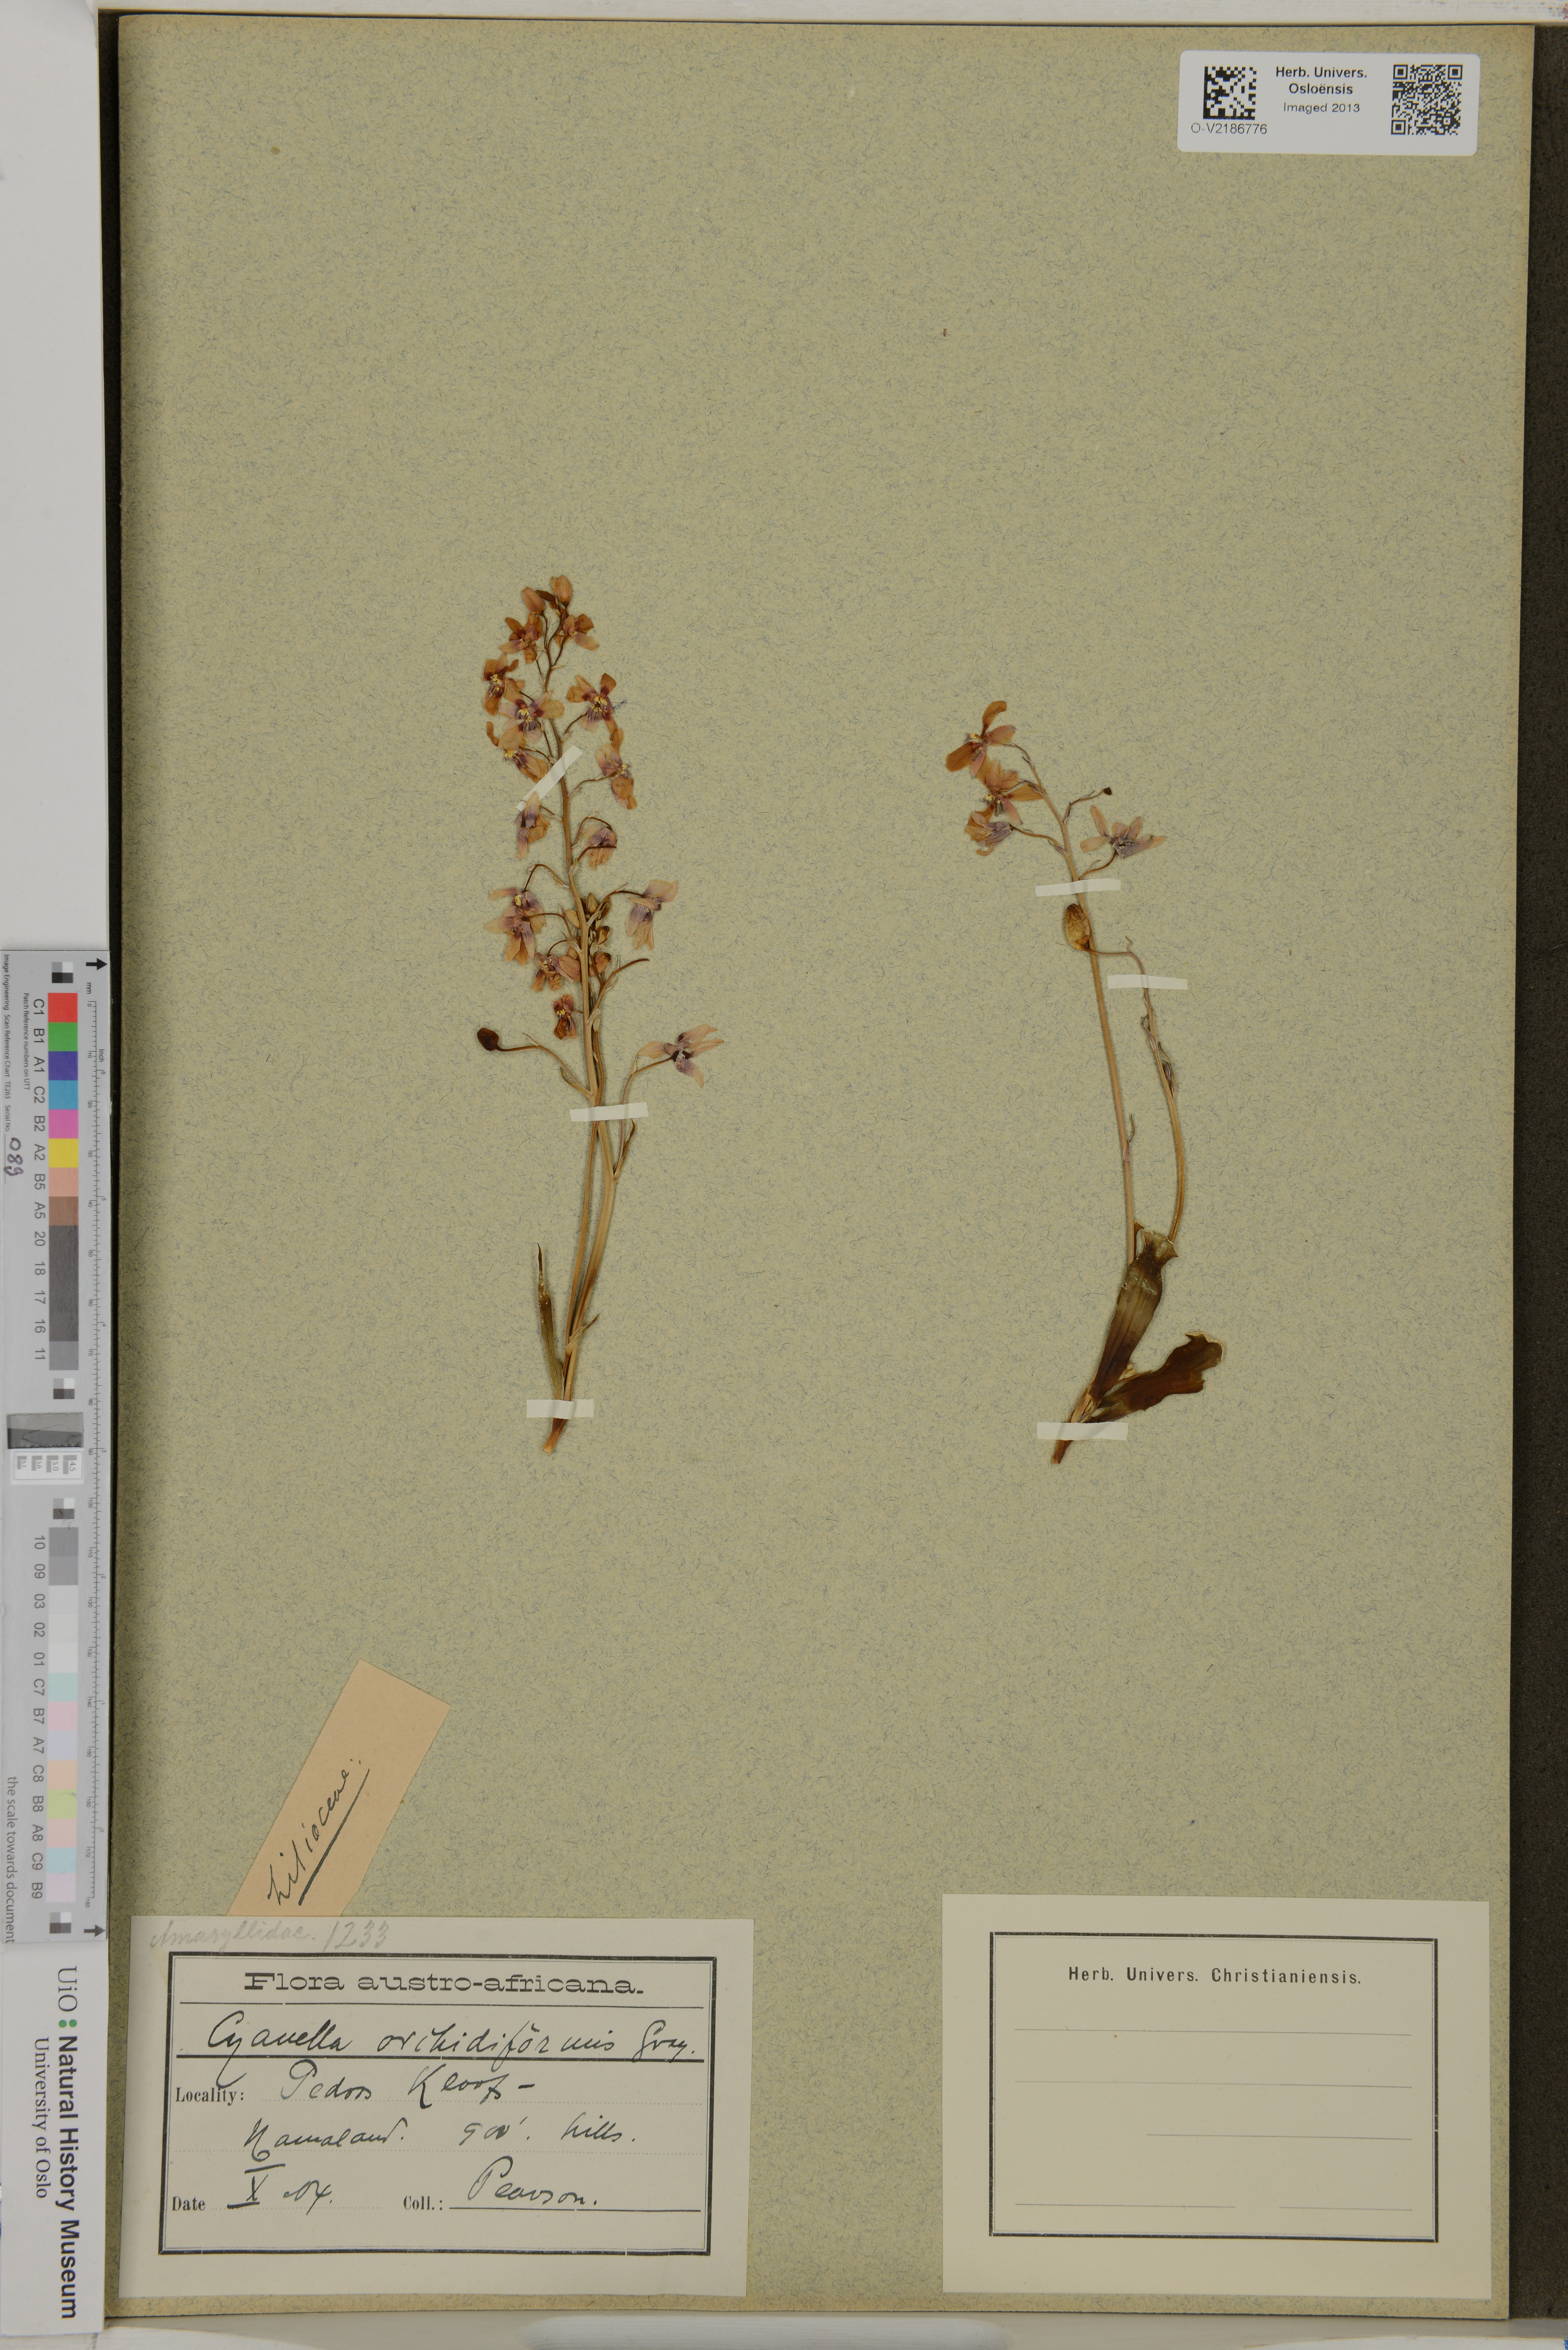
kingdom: Plantae
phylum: Tracheophyta
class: Liliopsida
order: Asparagales
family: Tecophilaeaceae
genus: Cyanella
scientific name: Cyanella orchidiformis
